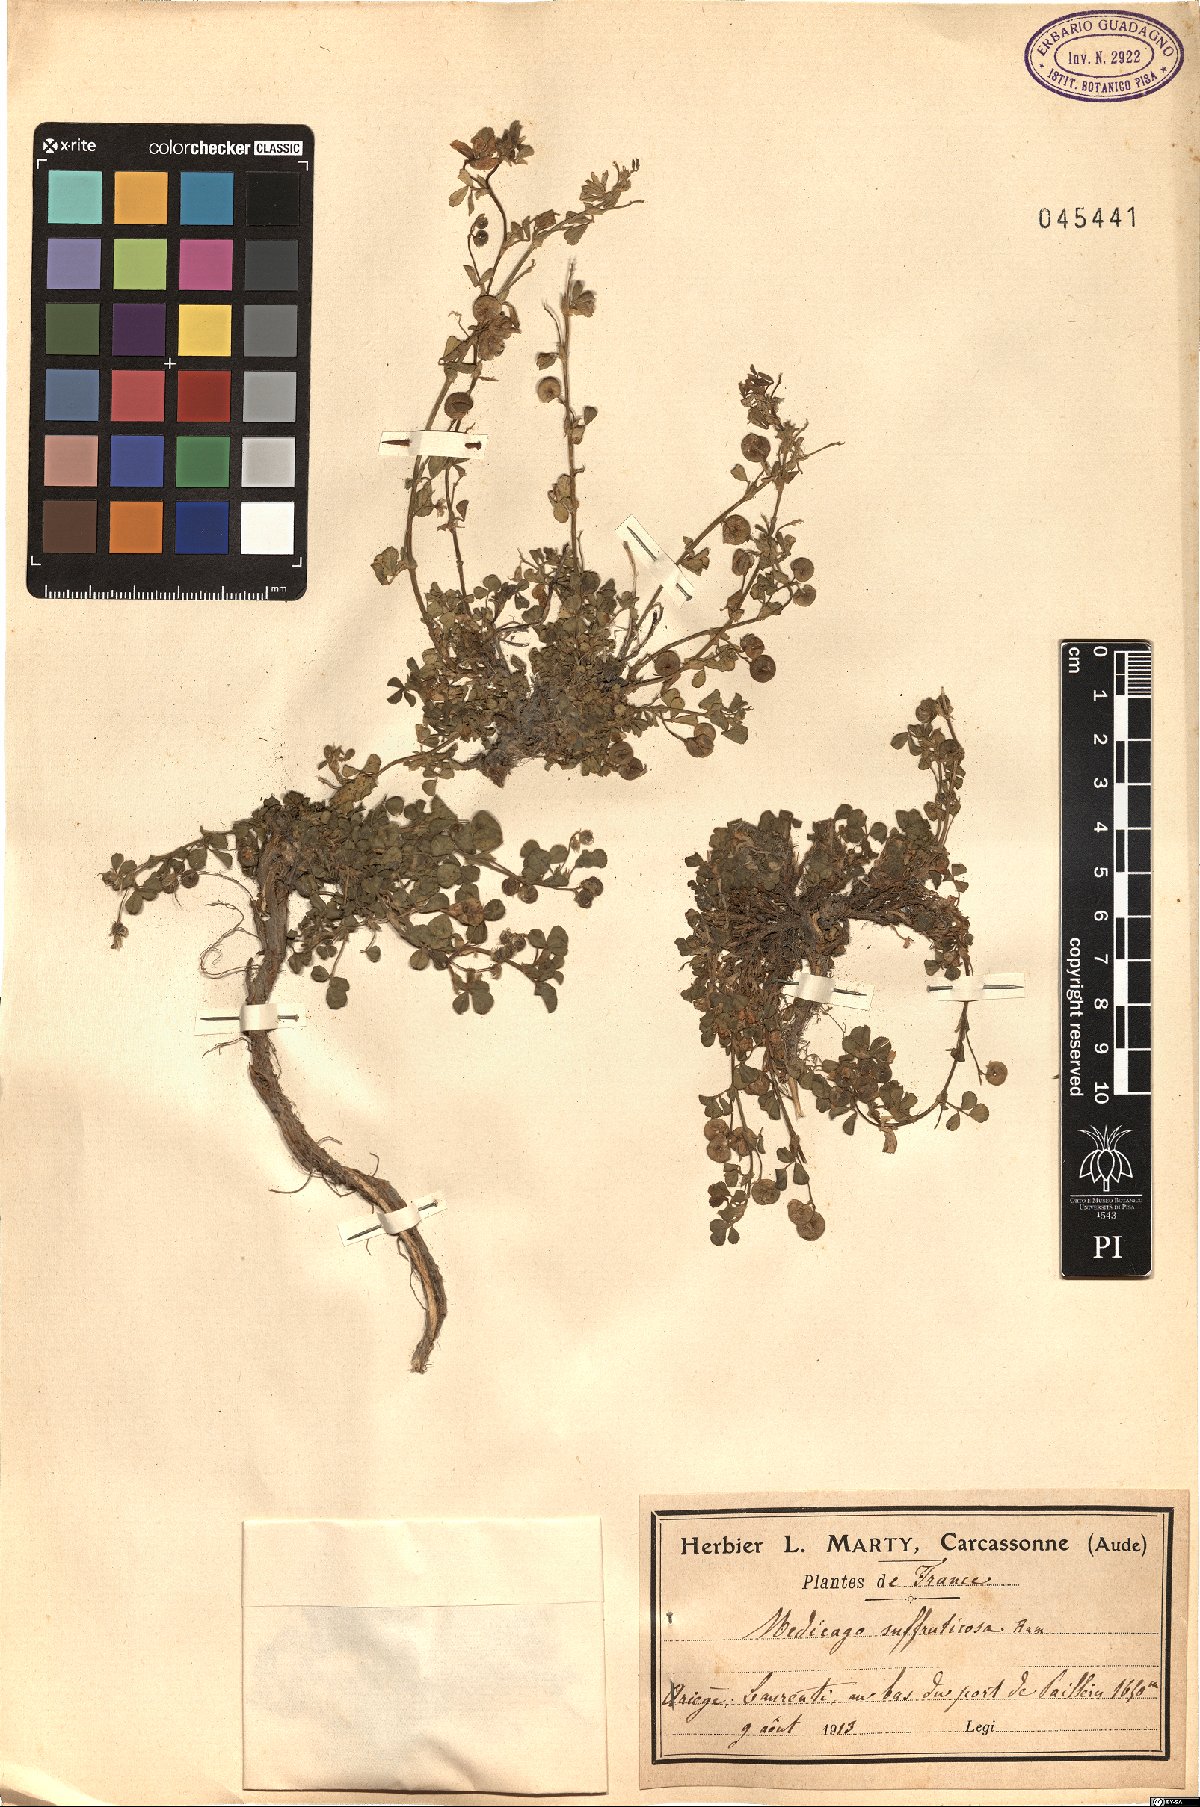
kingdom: Plantae
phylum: Tracheophyta
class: Magnoliopsida
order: Fabales
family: Fabaceae
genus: Medicago
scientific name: Medicago suffruticosa
